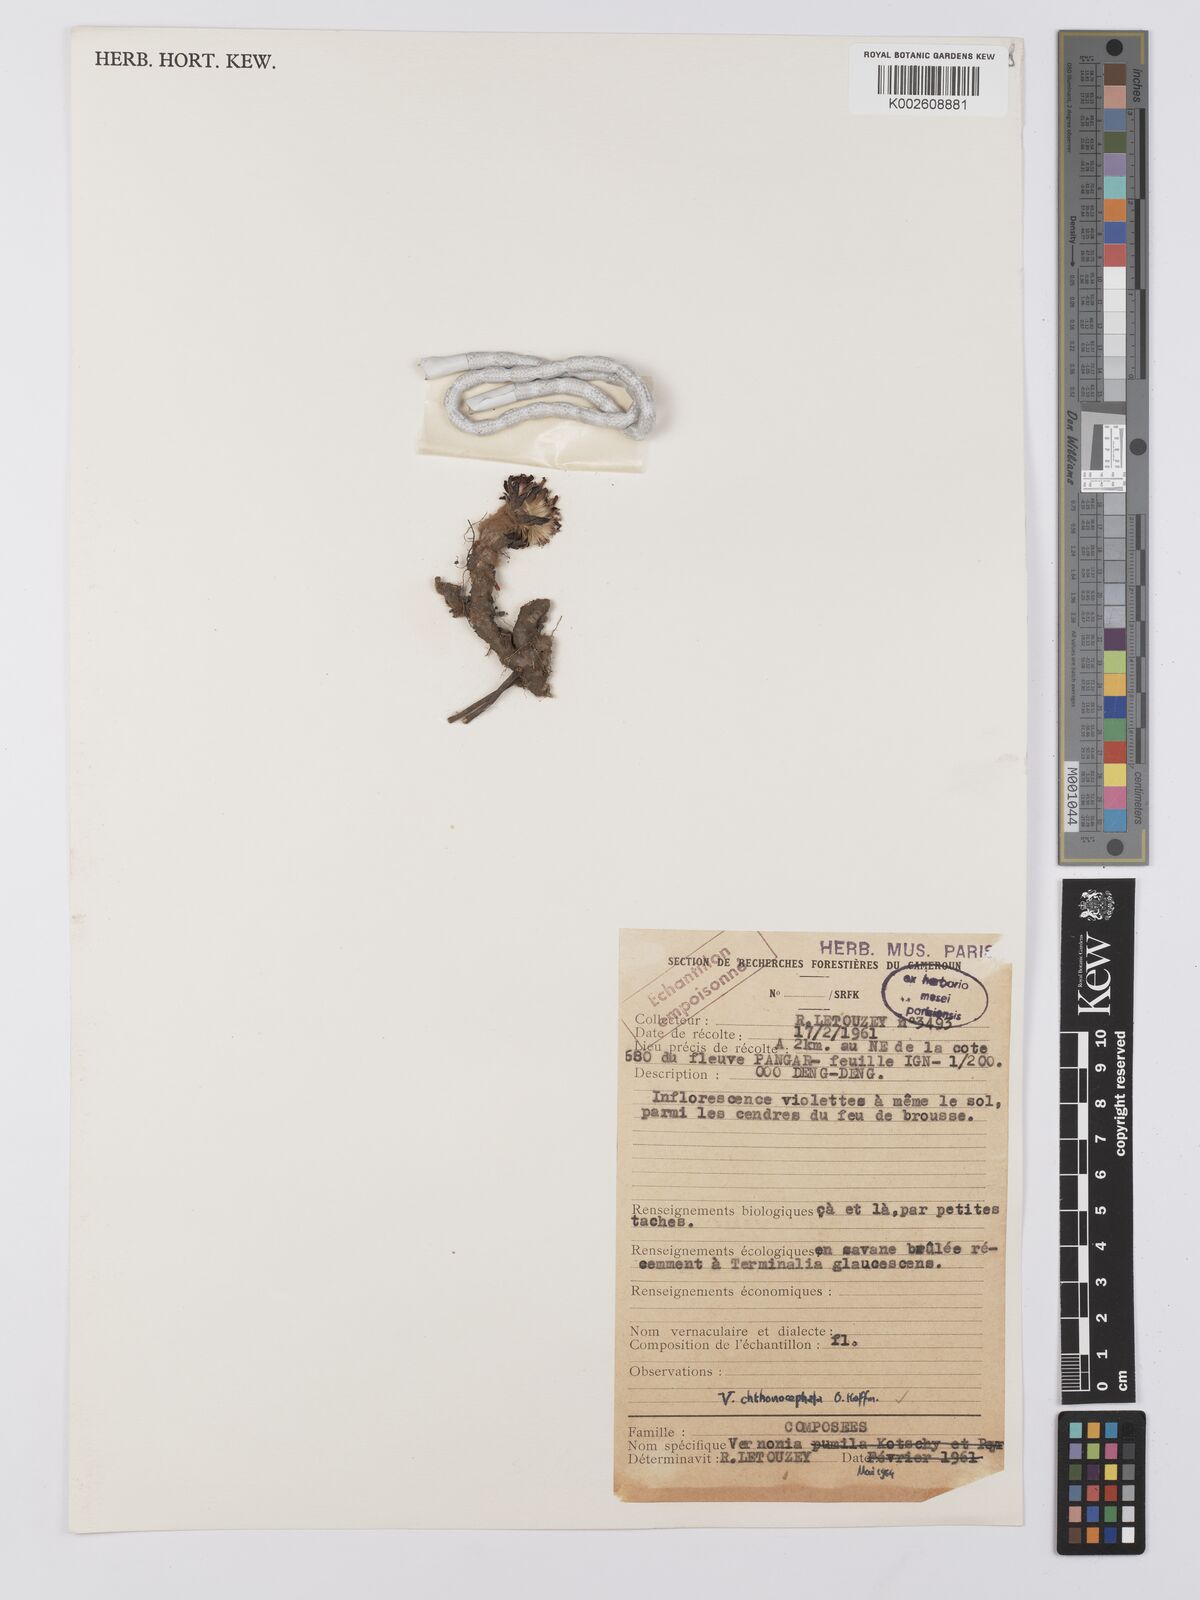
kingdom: Plantae
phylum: Tracheophyta
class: Magnoliopsida
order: Asterales
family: Asteraceae
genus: Vernonella
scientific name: Vernonella chthonocephala
